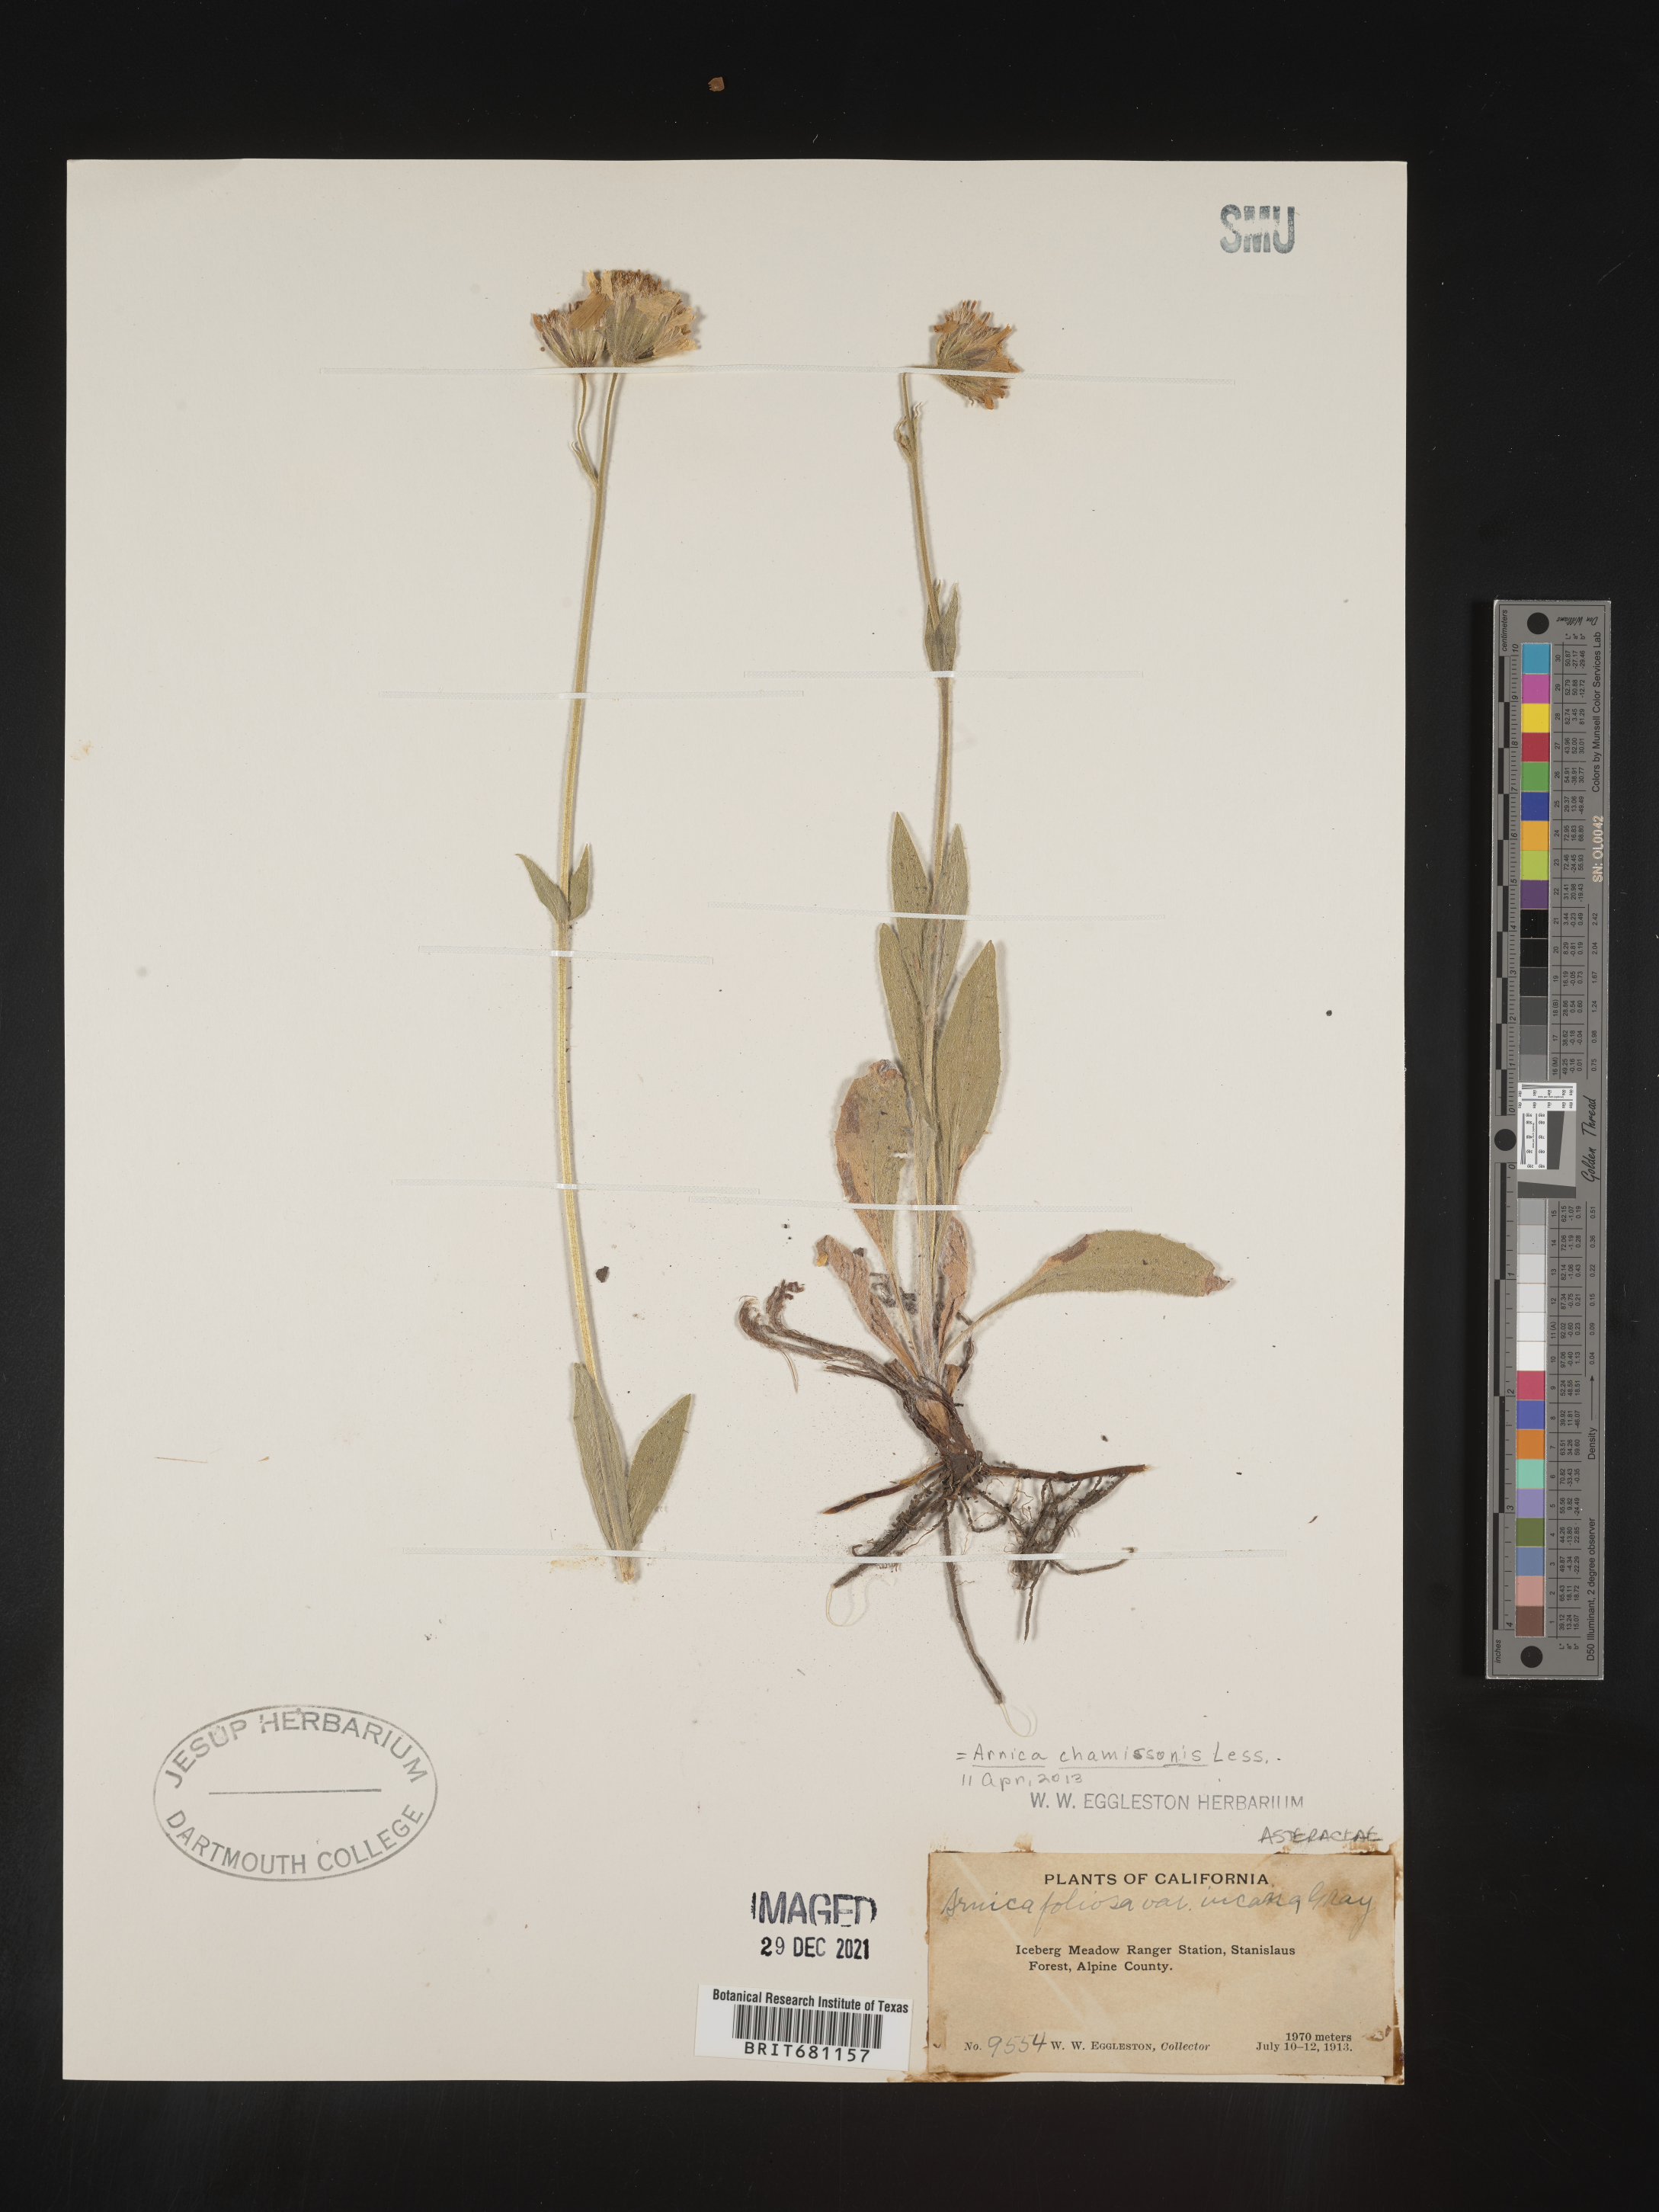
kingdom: Plantae
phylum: Tracheophyta
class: Magnoliopsida
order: Asterales
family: Asteraceae
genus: Arnica
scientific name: Arnica chamissonis
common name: Leafy arnica
